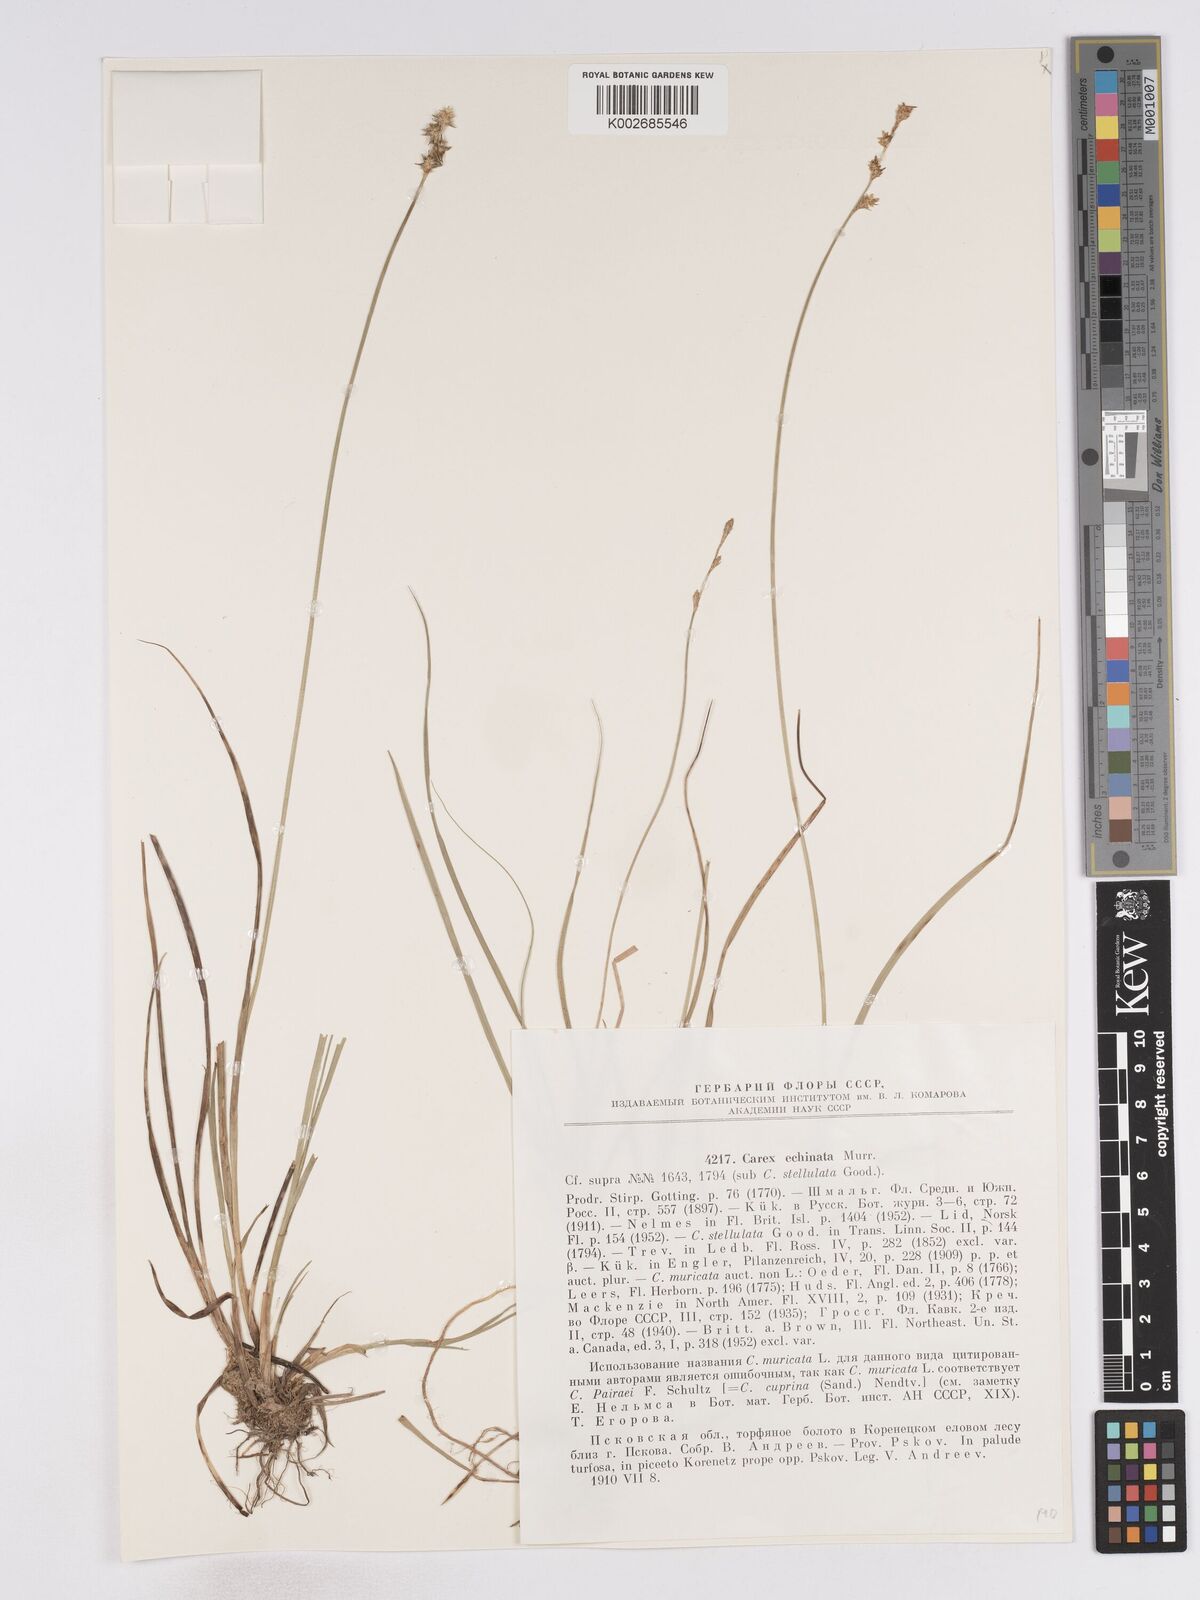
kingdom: Plantae
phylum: Tracheophyta
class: Liliopsida
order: Poales
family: Cyperaceae
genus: Carex
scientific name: Carex echinata
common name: Star sedge
